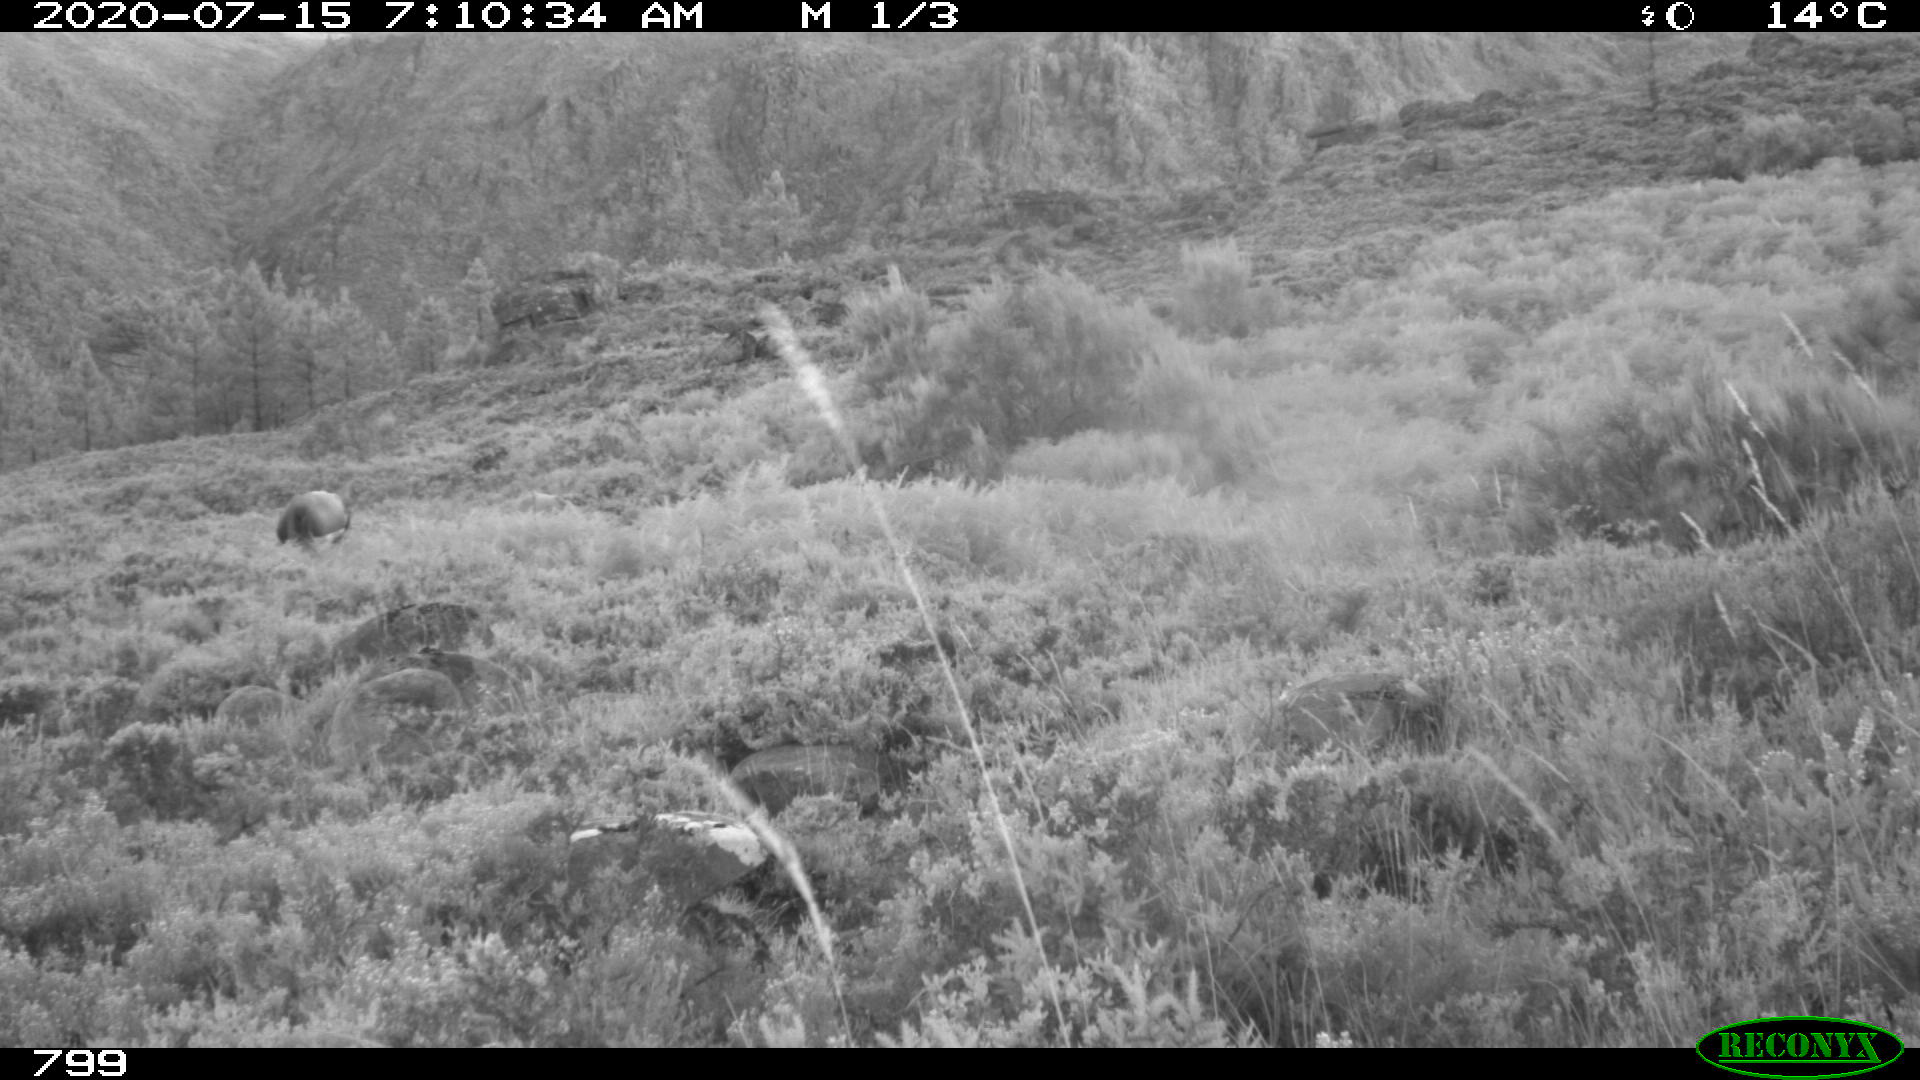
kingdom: Animalia
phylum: Chordata
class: Mammalia
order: Artiodactyla
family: Bovidae
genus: Bos
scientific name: Bos taurus
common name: Domesticated cattle
